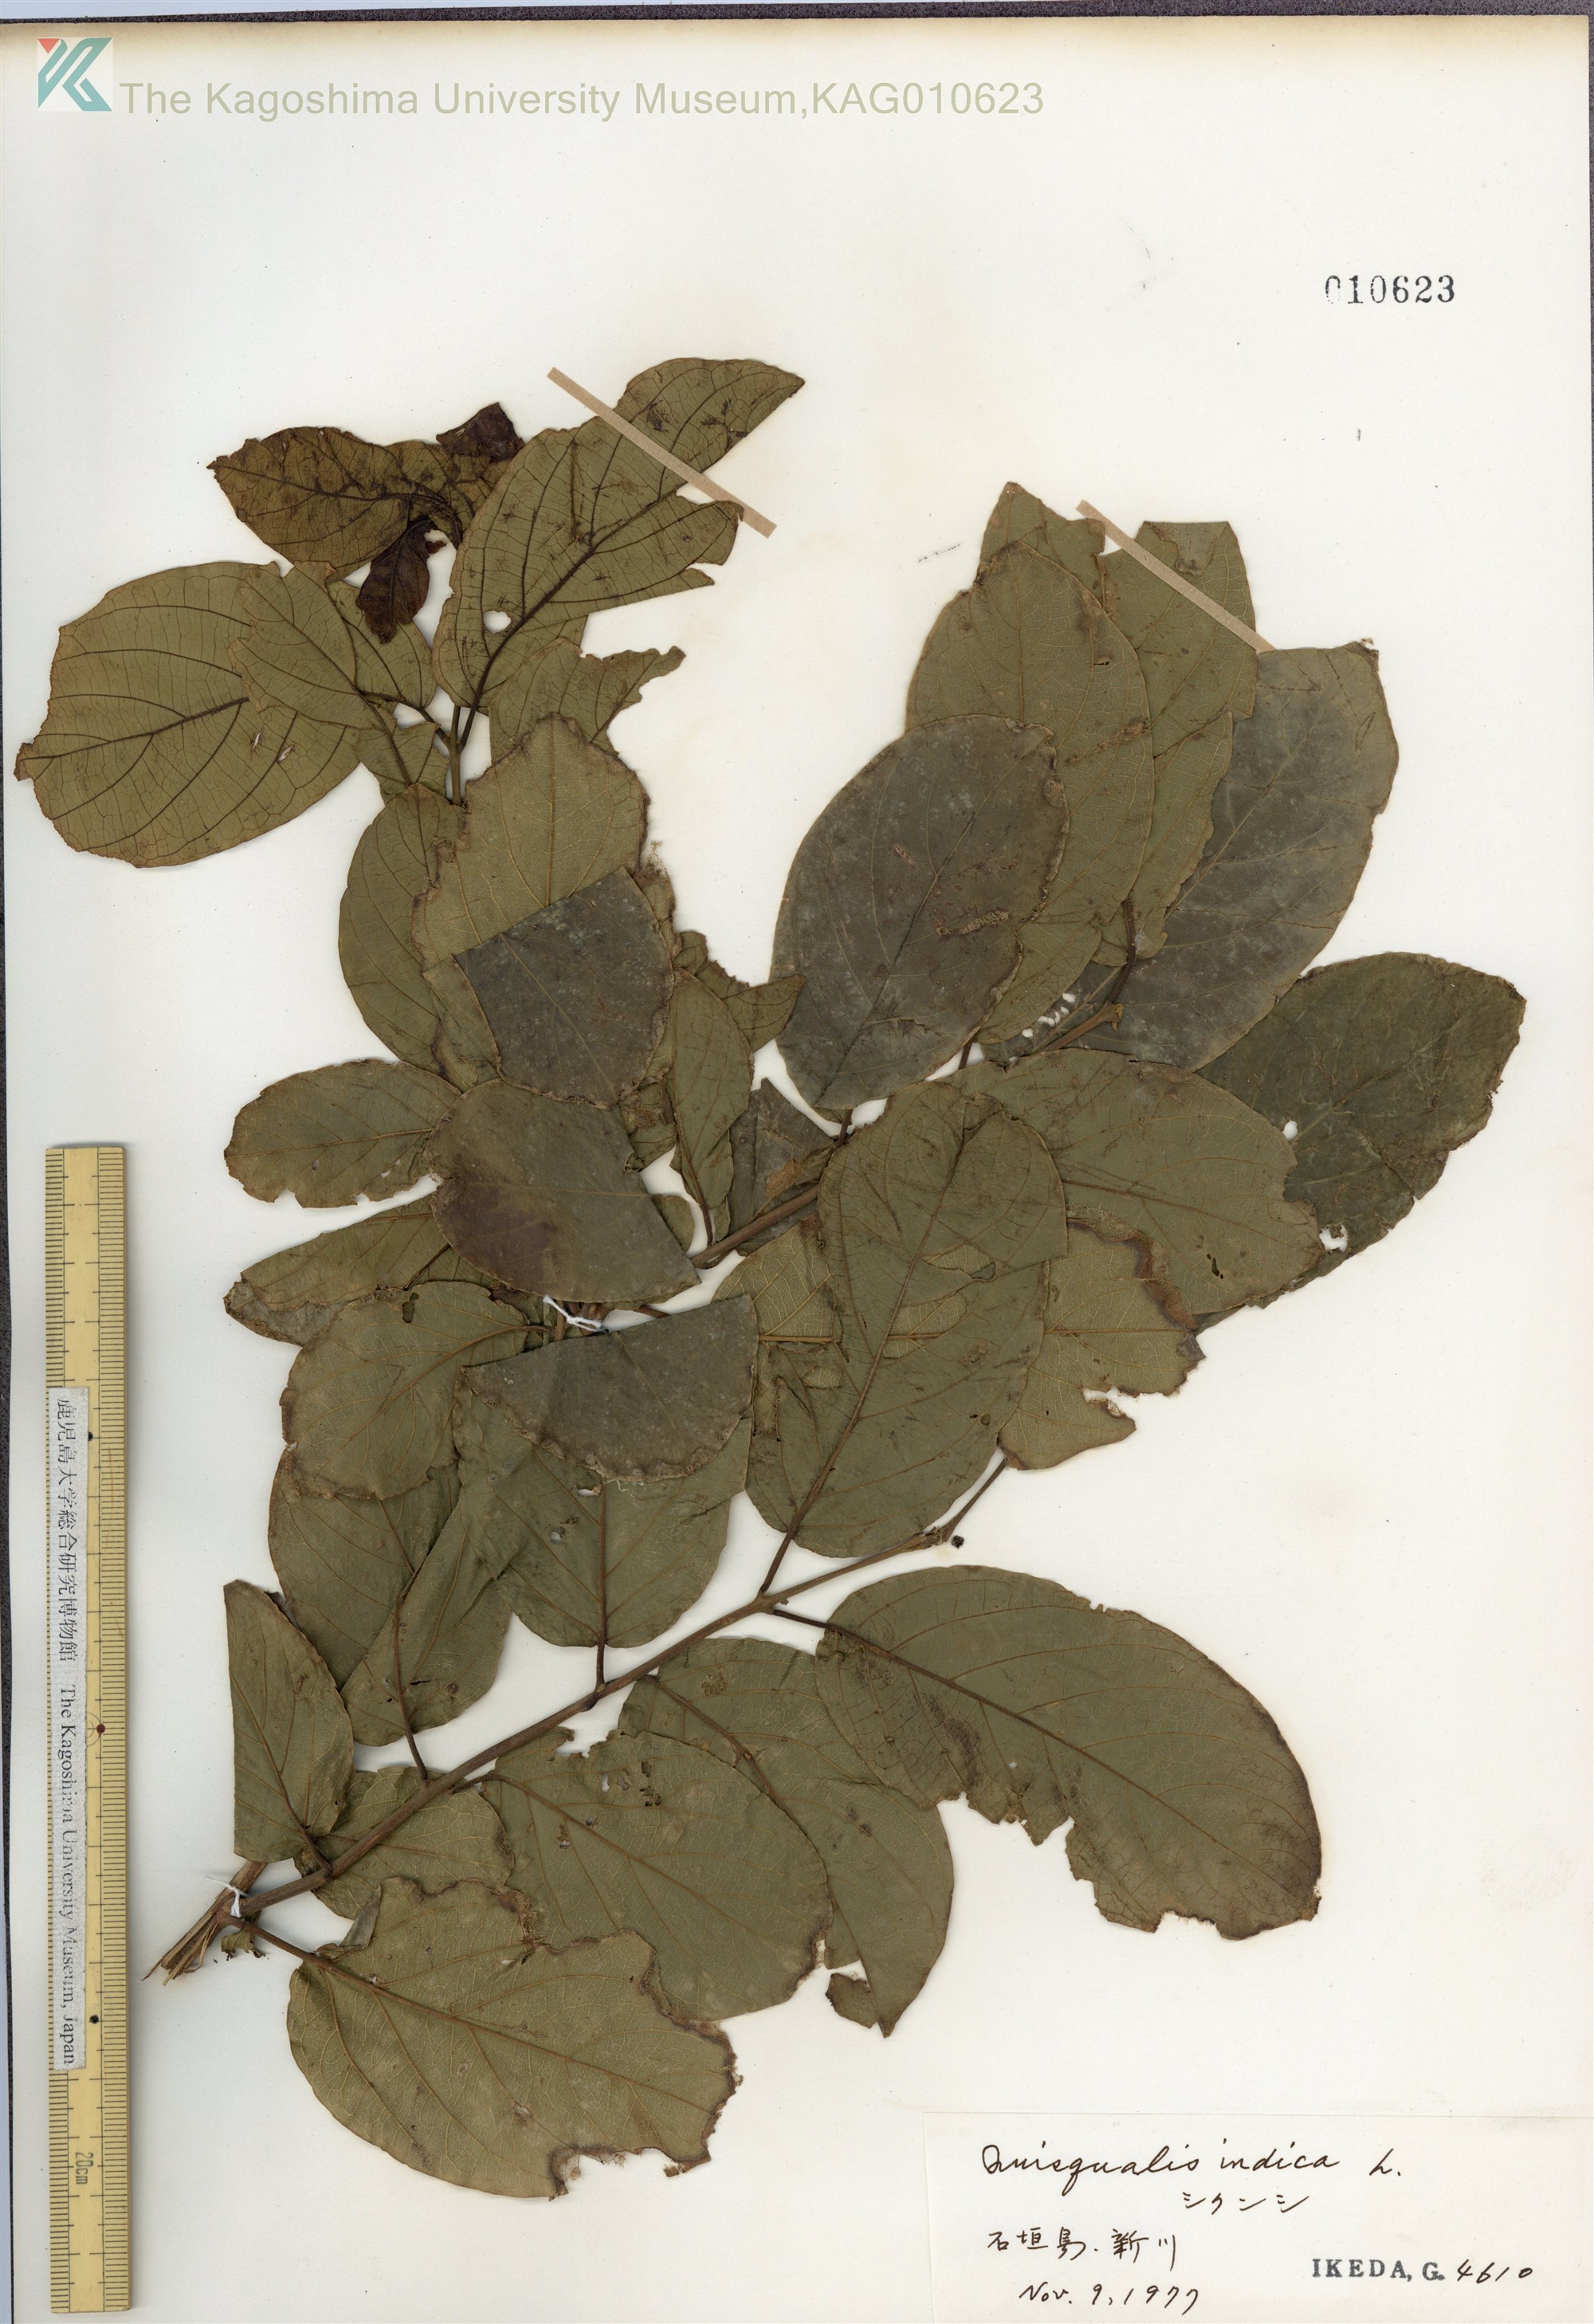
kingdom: Plantae
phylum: Tracheophyta
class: Magnoliopsida
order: Myrtales
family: Combretaceae
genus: Combretum
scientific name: Combretum indicum
